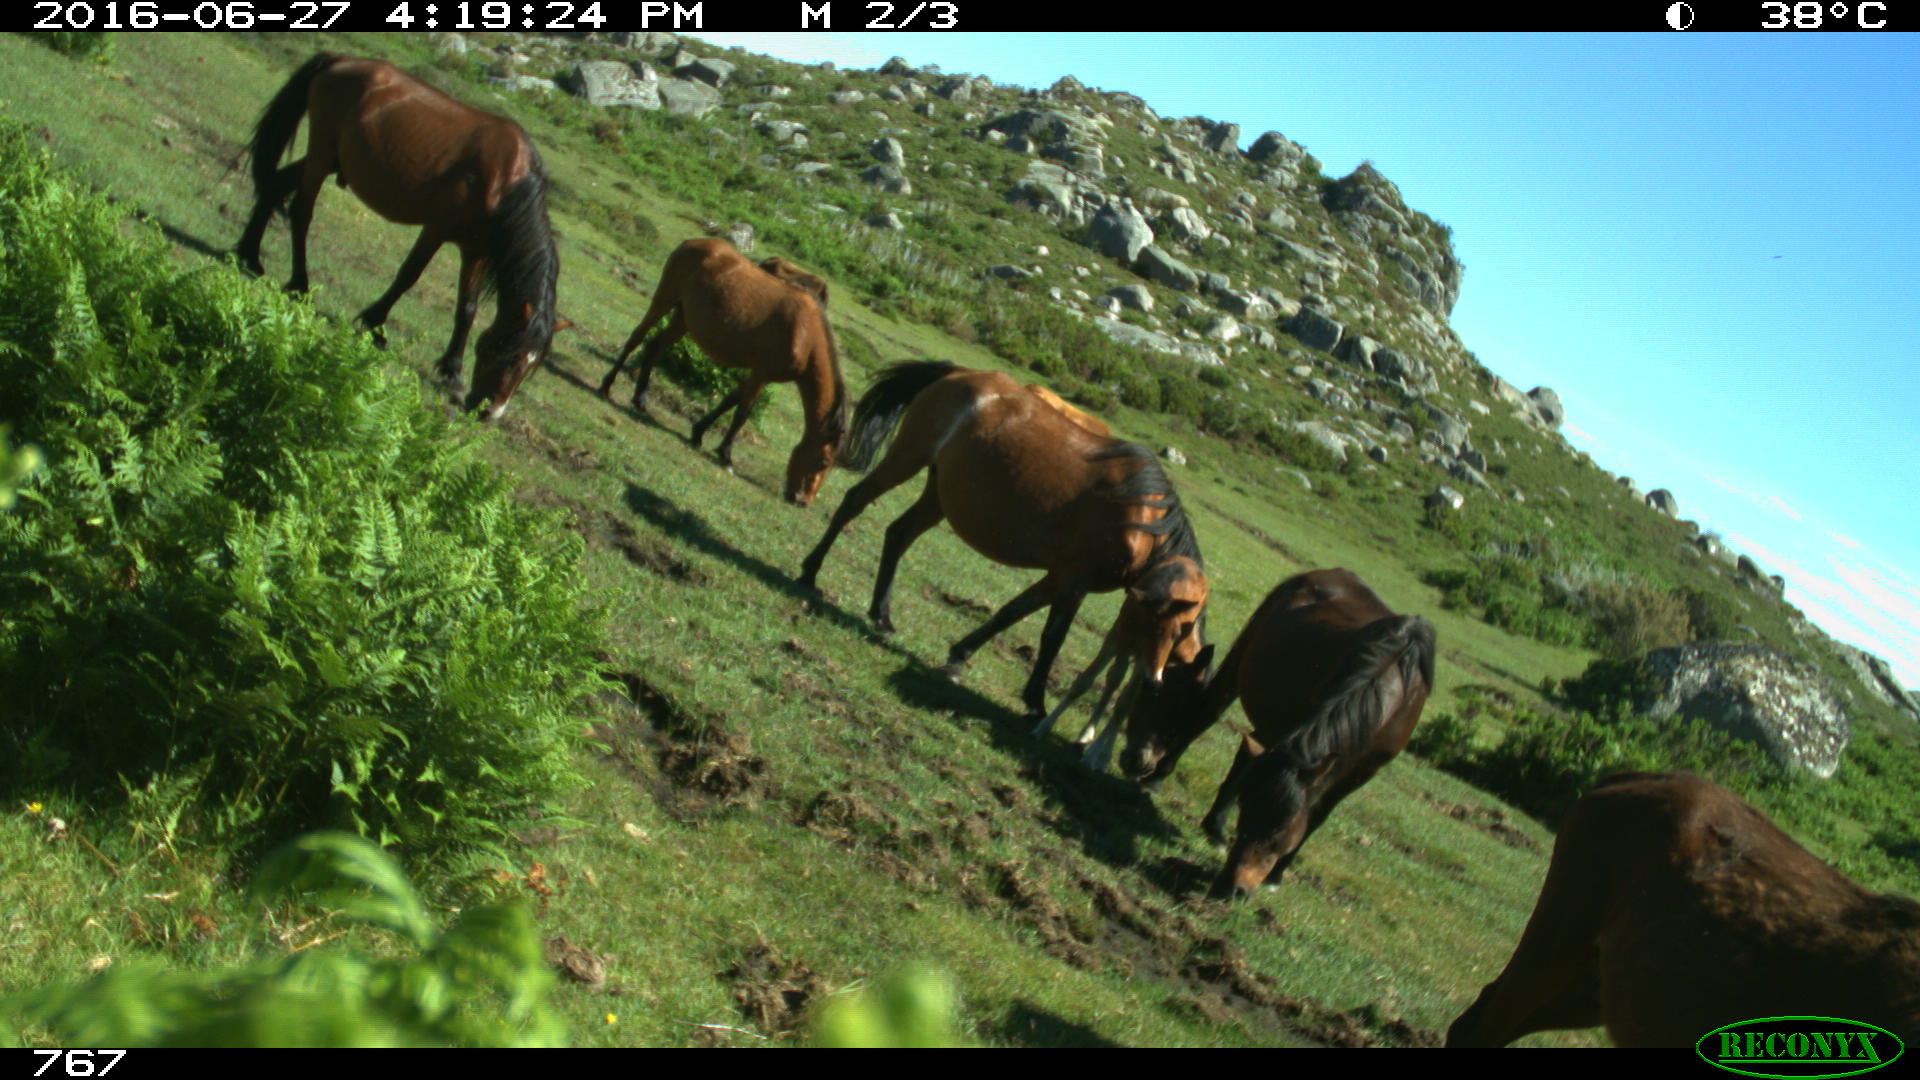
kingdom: Animalia
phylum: Chordata
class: Mammalia
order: Artiodactyla
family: Bovidae
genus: Bos
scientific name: Bos taurus
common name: Domesticated cattle
